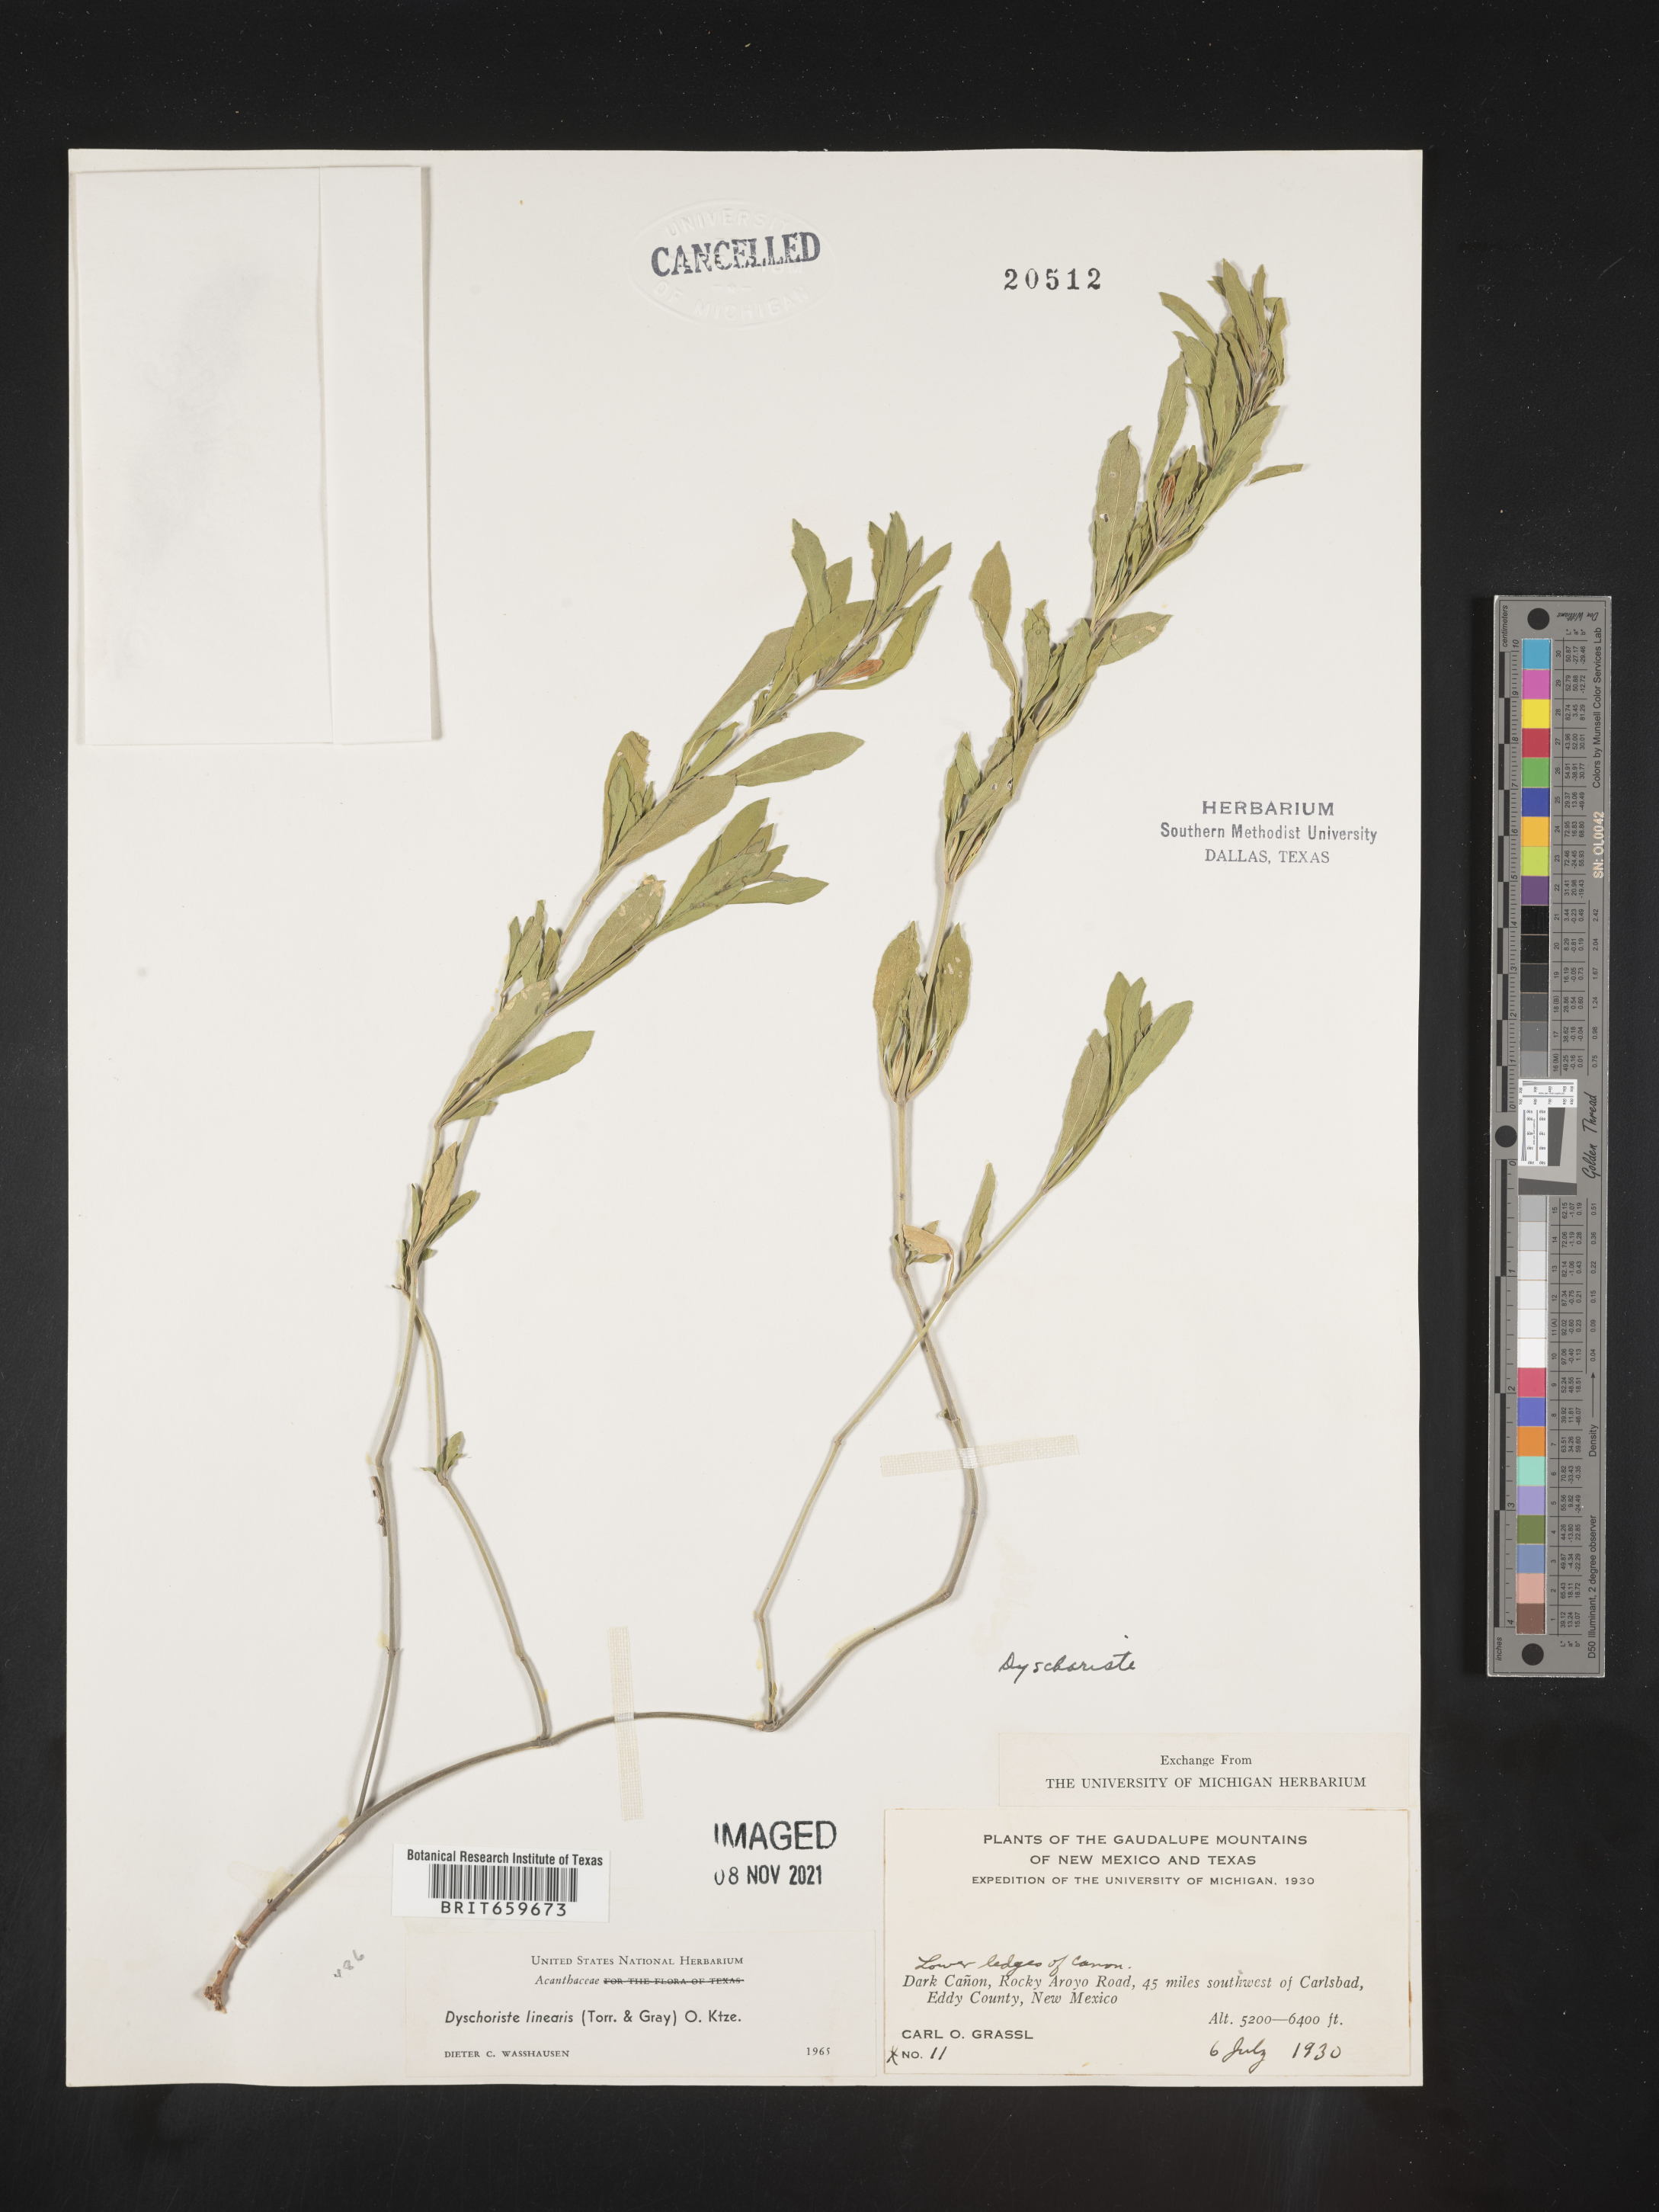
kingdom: Plantae
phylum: Tracheophyta
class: Magnoliopsida
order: Lamiales
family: Acanthaceae
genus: Dyschoriste
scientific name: Dyschoriste
